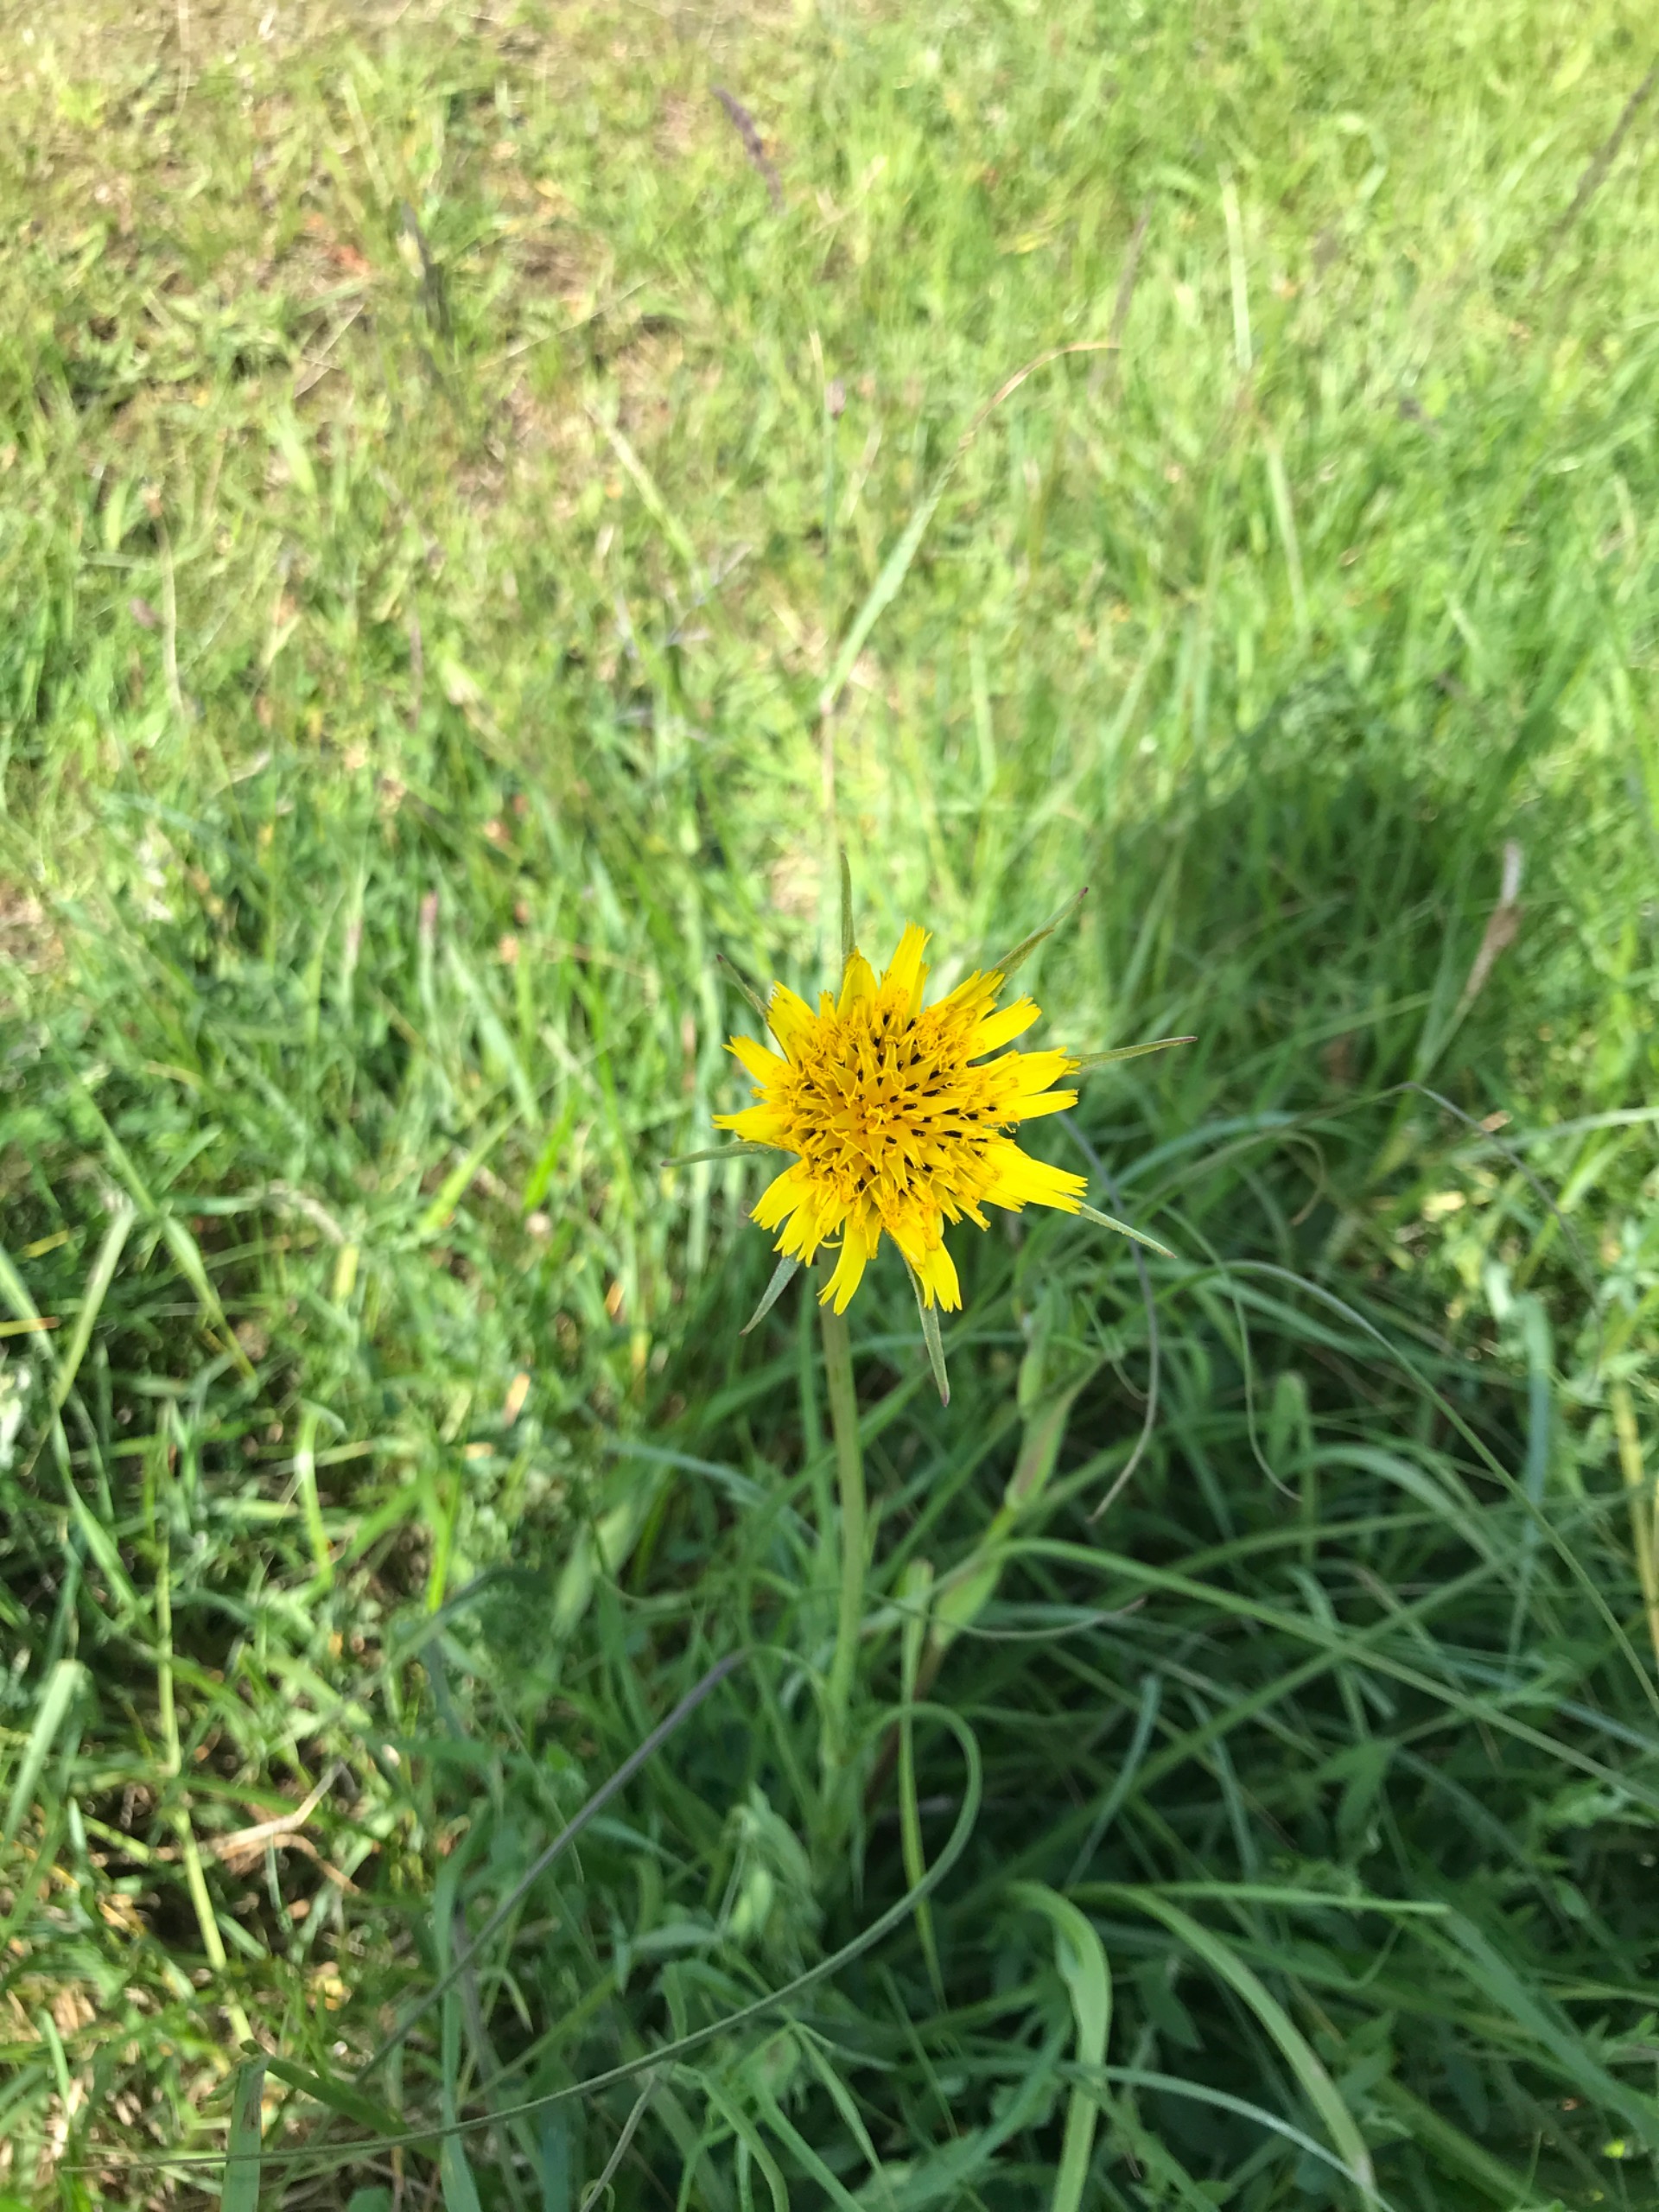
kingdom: Plantae
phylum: Tracheophyta
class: Magnoliopsida
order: Asterales
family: Asteraceae
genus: Tragopogon
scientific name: Tragopogon minor
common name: Småkronet gedeskæg
